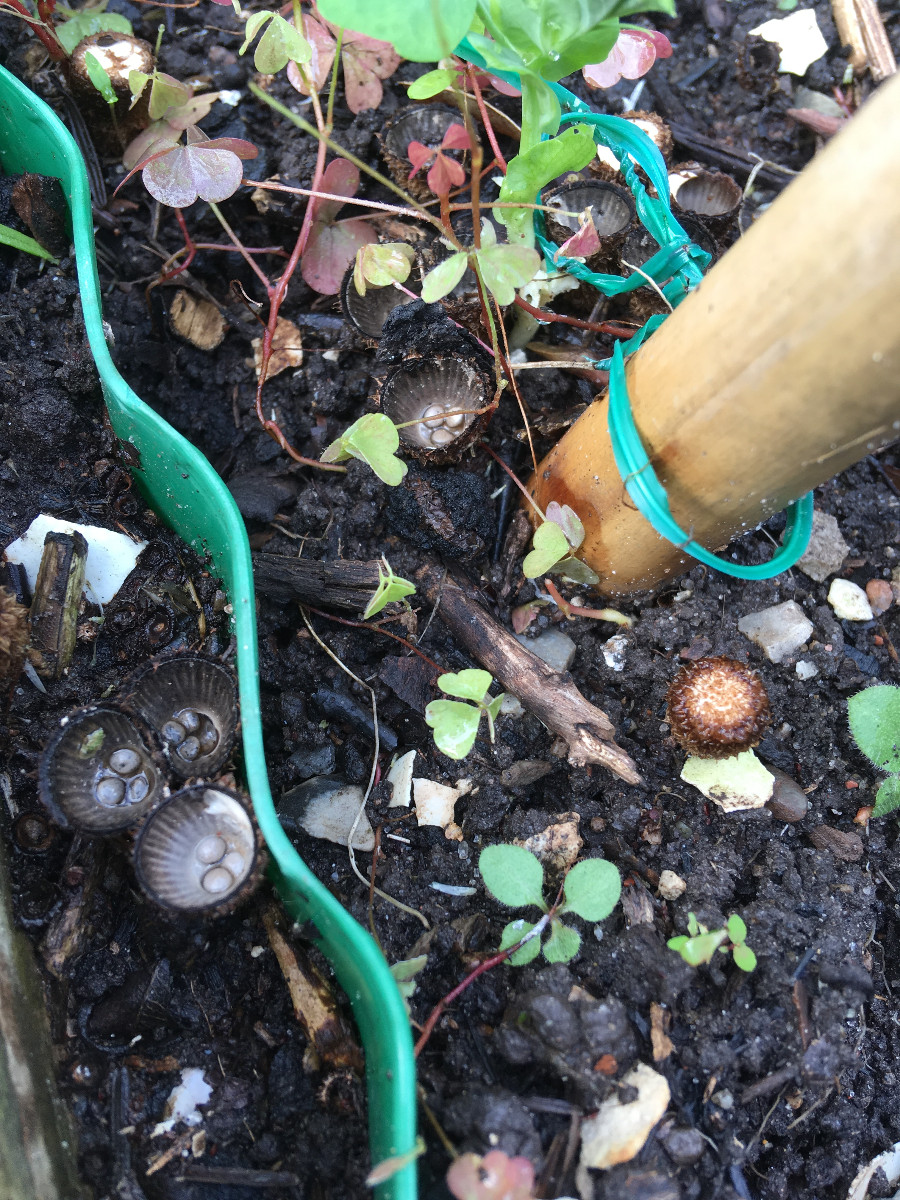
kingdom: Fungi
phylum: Basidiomycota
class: Agaricomycetes
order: Agaricales
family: Agaricaceae
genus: Cyathus
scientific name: Cyathus striatus
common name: stribet redesvamp
